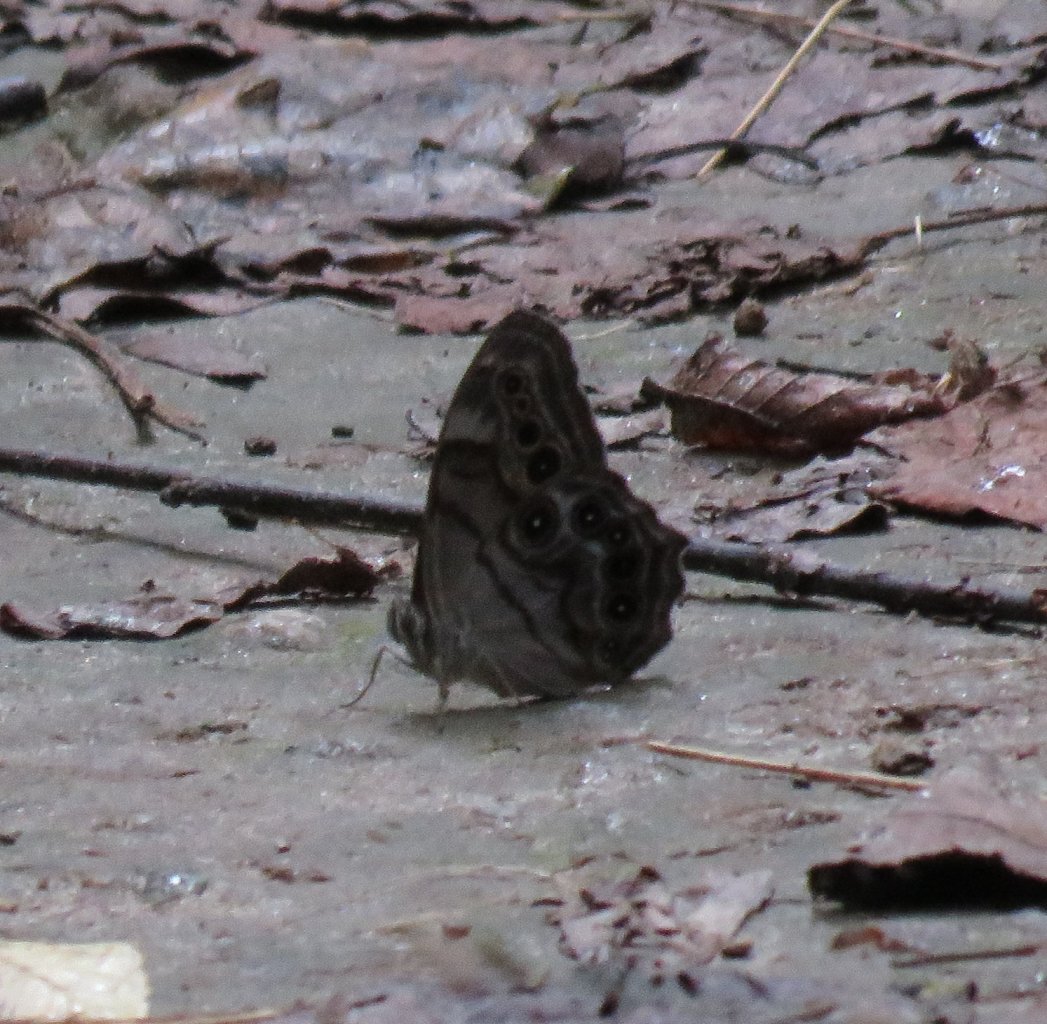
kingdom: Animalia
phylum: Arthropoda
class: Insecta
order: Lepidoptera
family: Nymphalidae
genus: Lethe
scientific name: Lethe anthedon
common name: Northern Pearly-Eye
